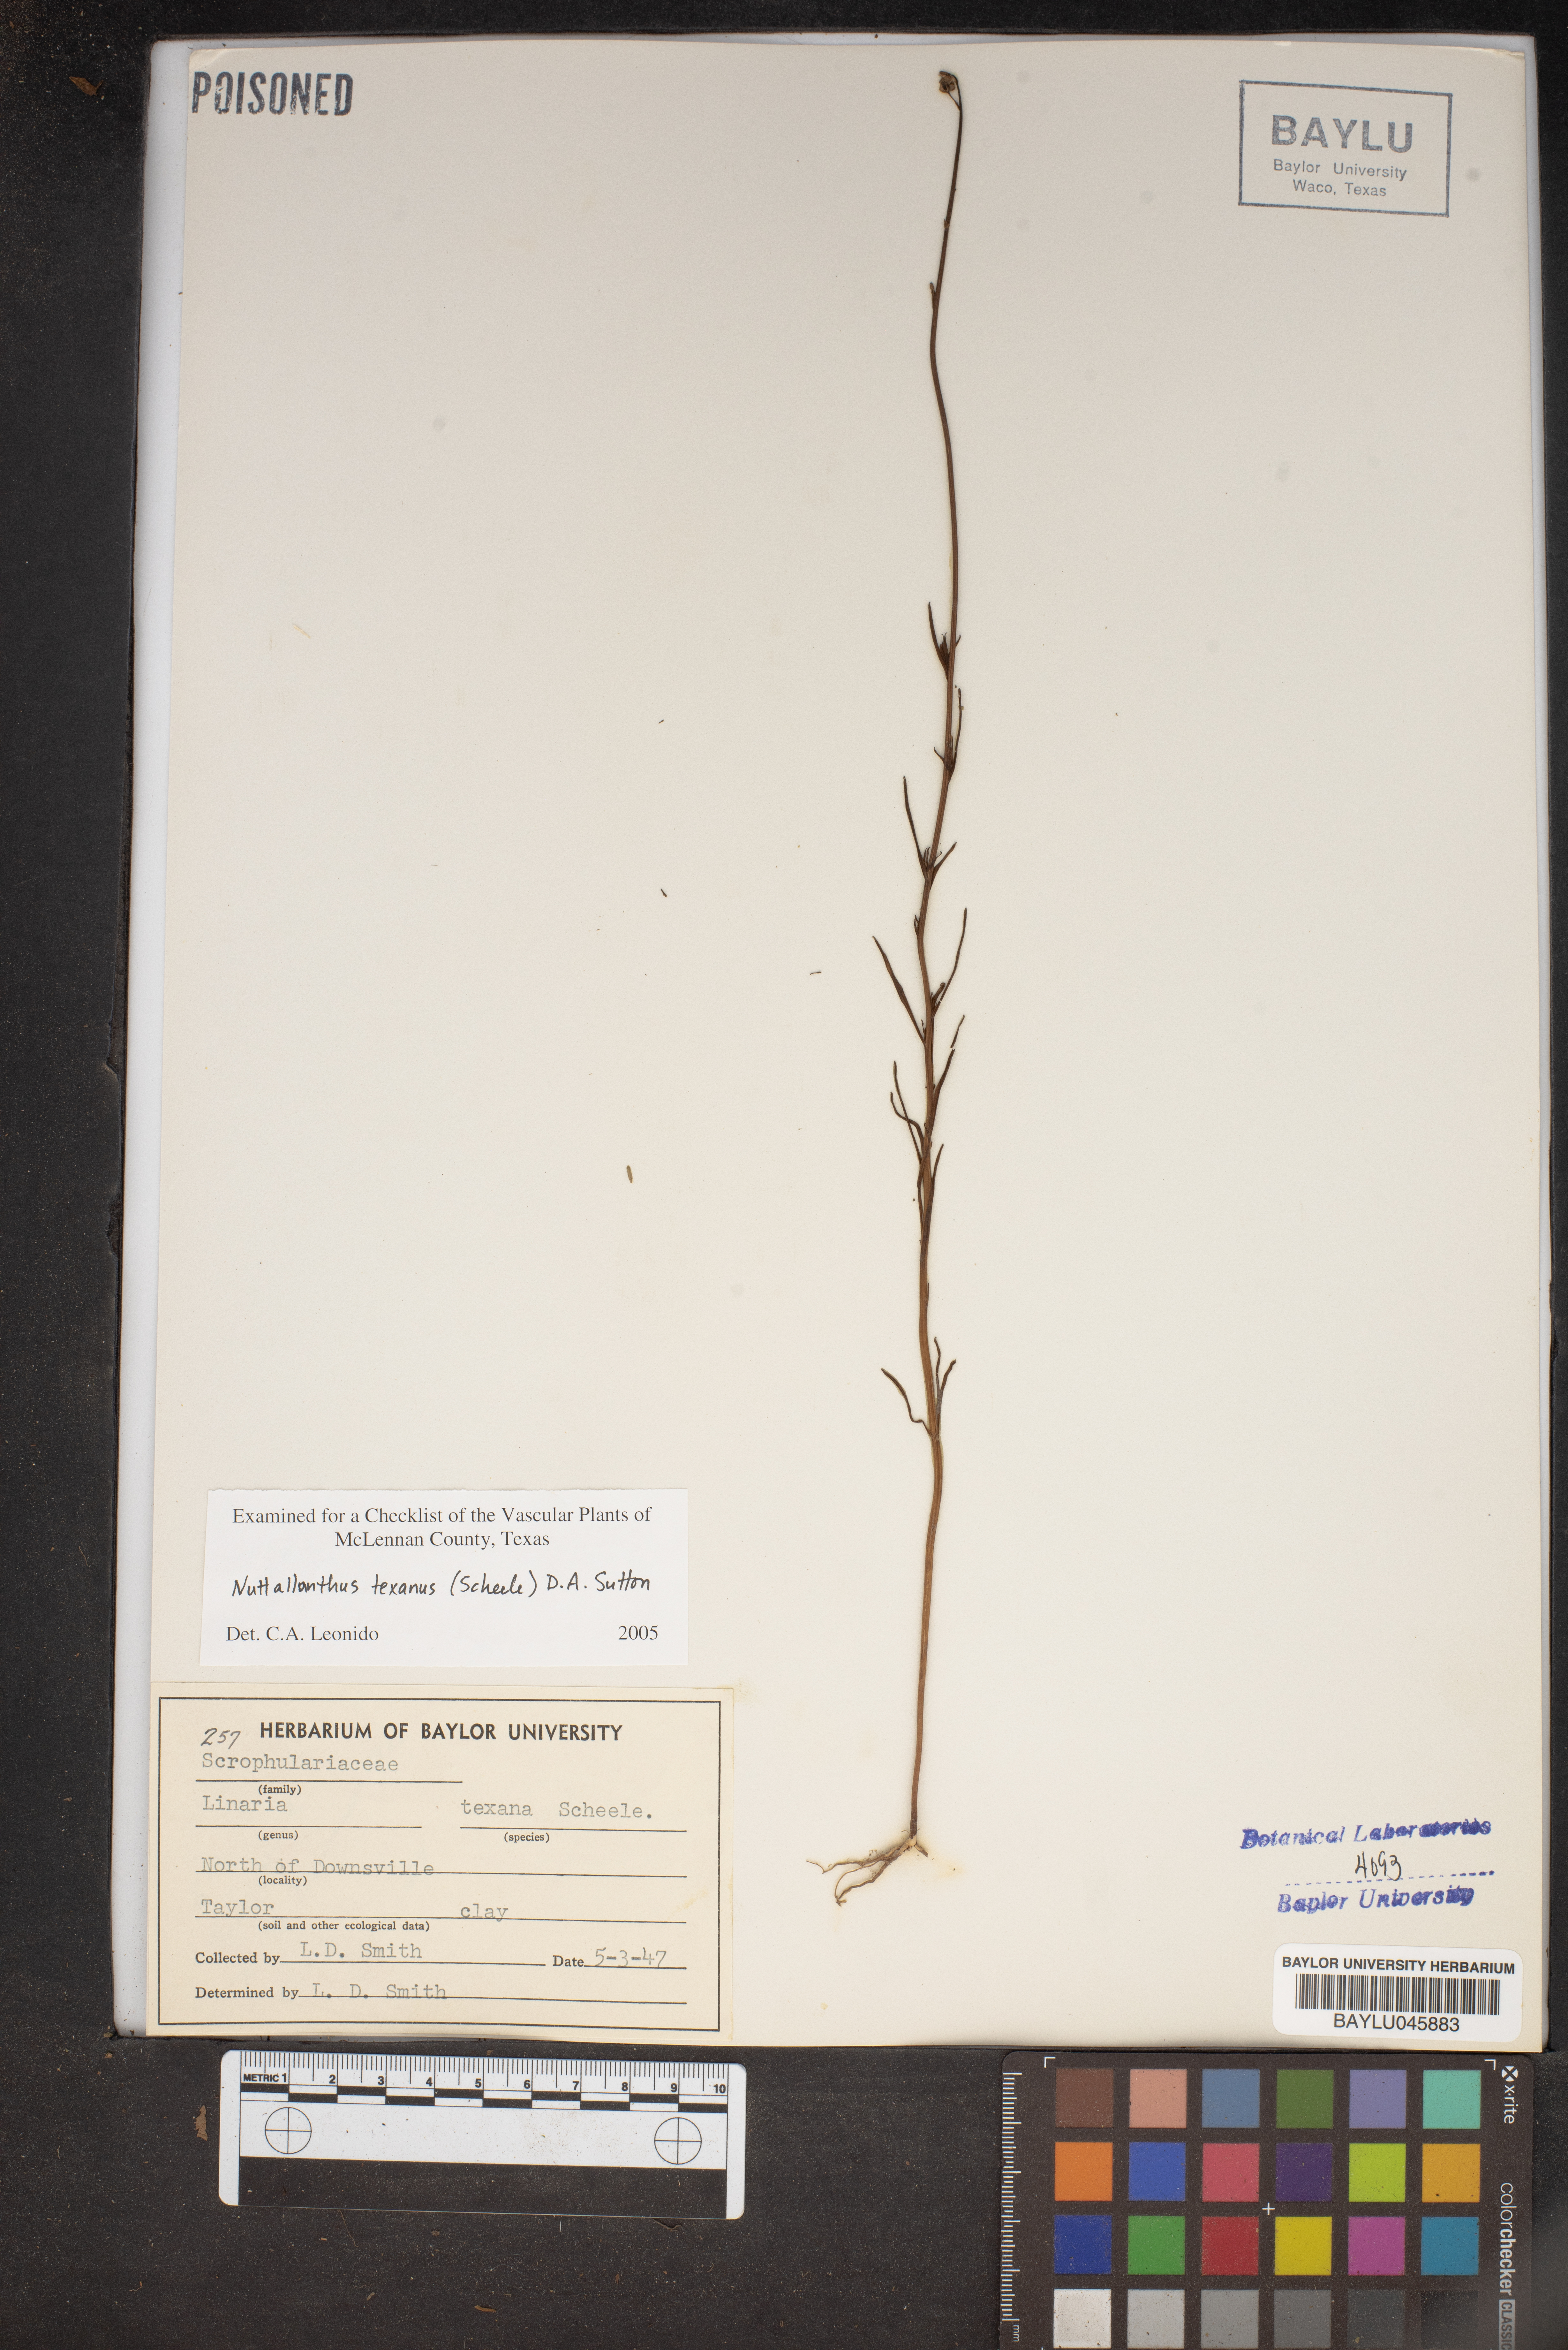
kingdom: Plantae
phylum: Tracheophyta
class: Magnoliopsida
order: Lamiales
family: Plantaginaceae
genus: Nuttallanthus
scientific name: Nuttallanthus texanus
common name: Texas toadflax
